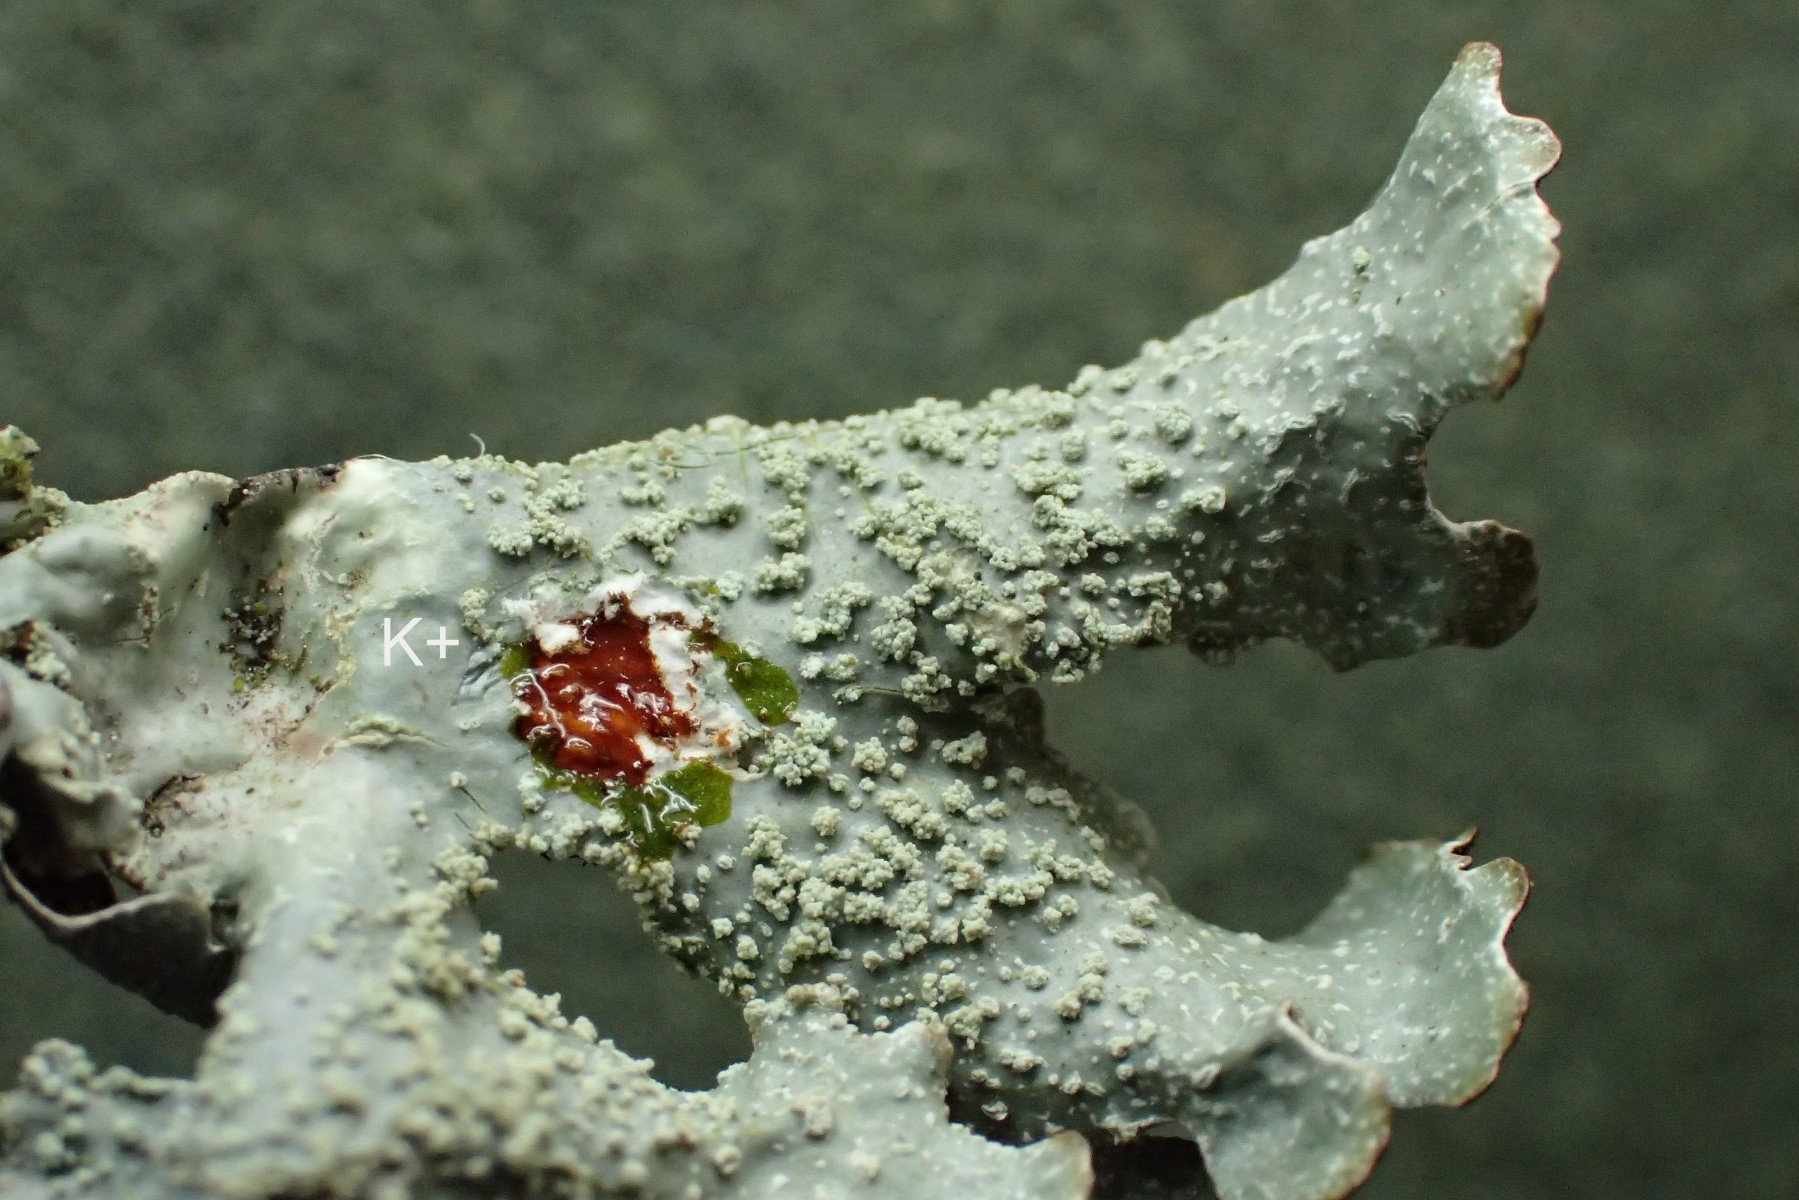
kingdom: Fungi
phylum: Ascomycota
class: Lecanoromycetes
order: Lecanorales
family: Parmeliaceae
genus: Parmelia
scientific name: Parmelia submontana
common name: langlobet skållav
